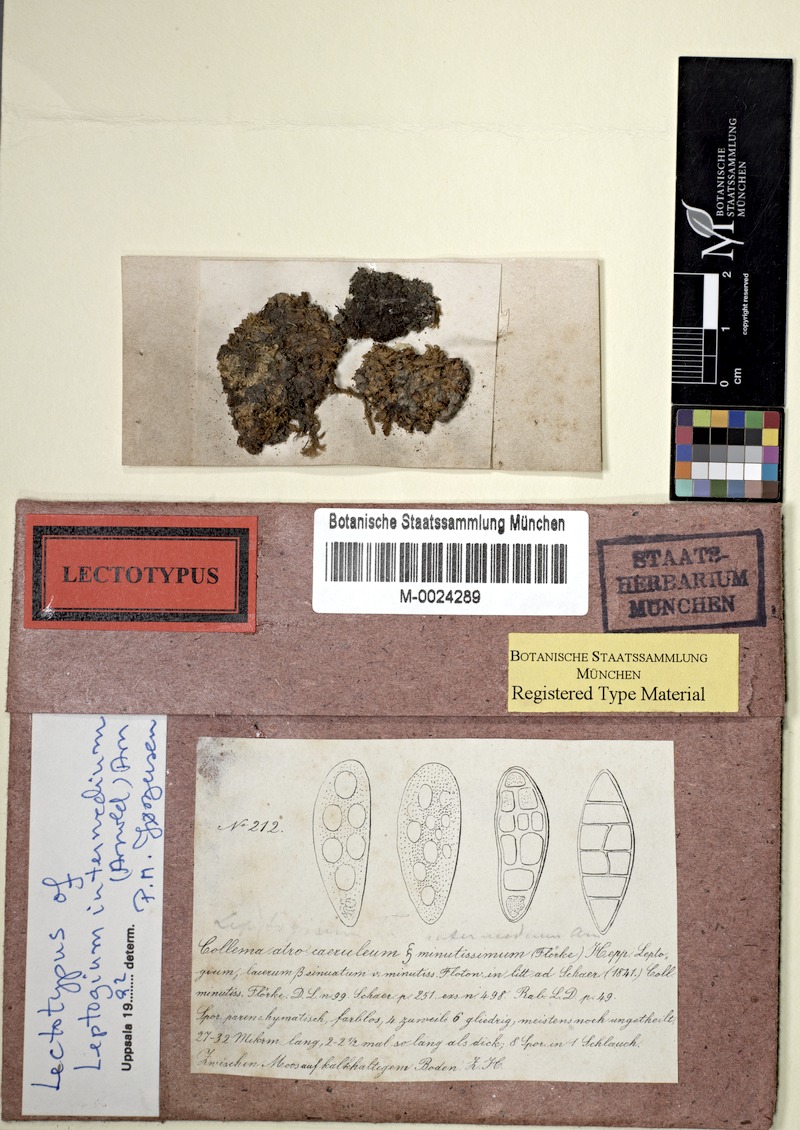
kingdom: Fungi
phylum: Ascomycota
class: Lecanoromycetes
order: Peltigerales
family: Collemataceae
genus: Scytinium
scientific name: Scytinium intermedium
